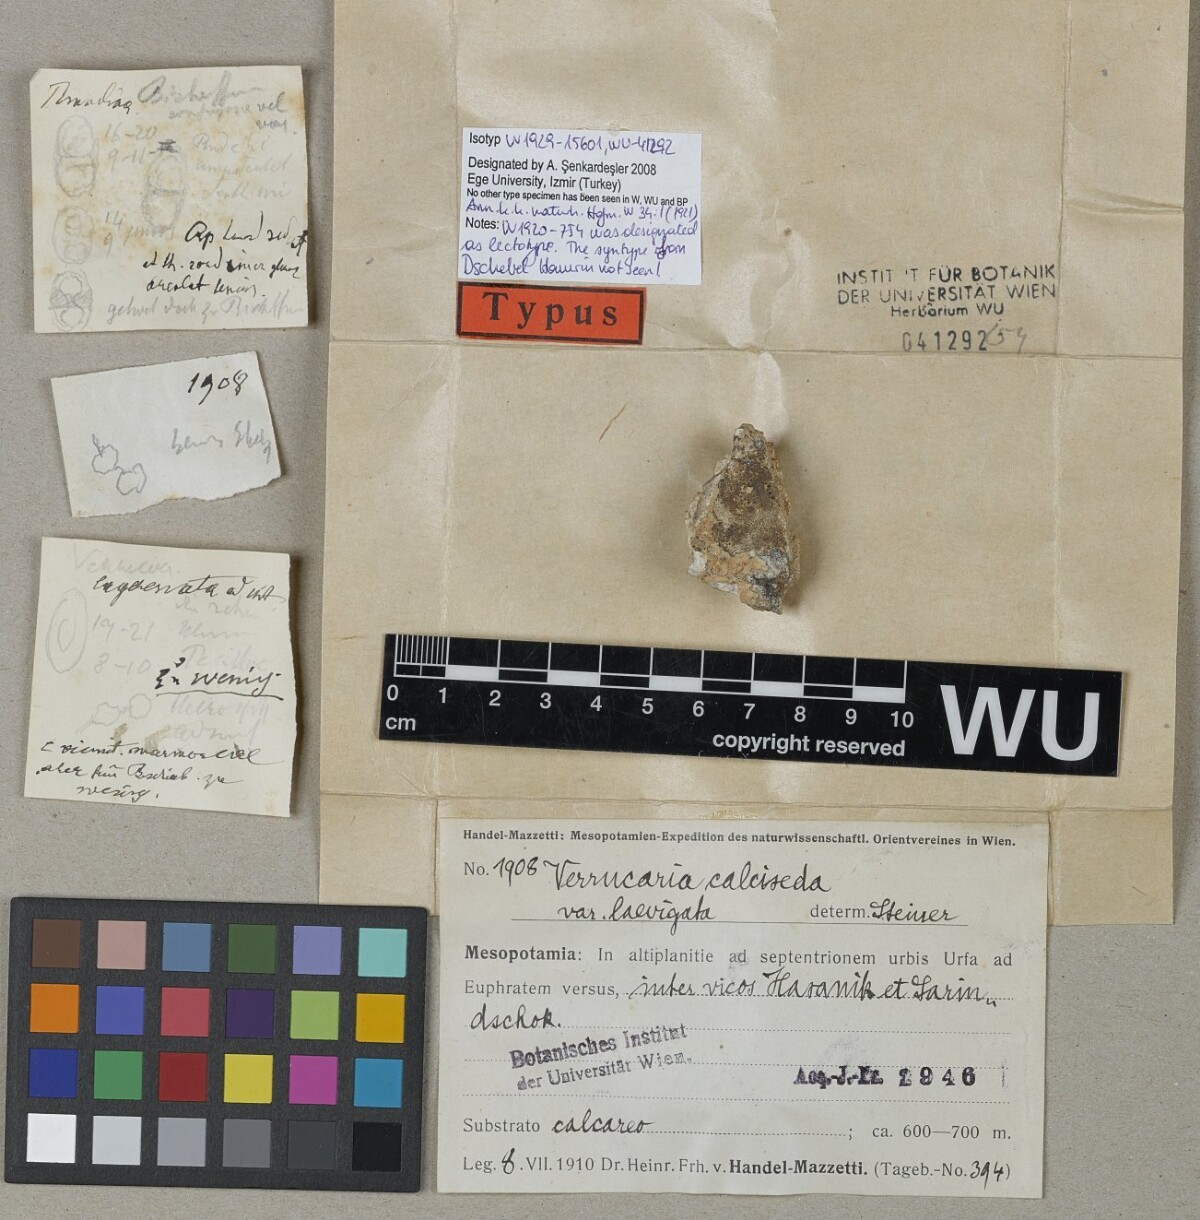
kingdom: Fungi
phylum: Ascomycota
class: Eurotiomycetes
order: Verrucariales
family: Verrucariaceae
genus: Bagliettoa
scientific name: Bagliettoa calciseda
